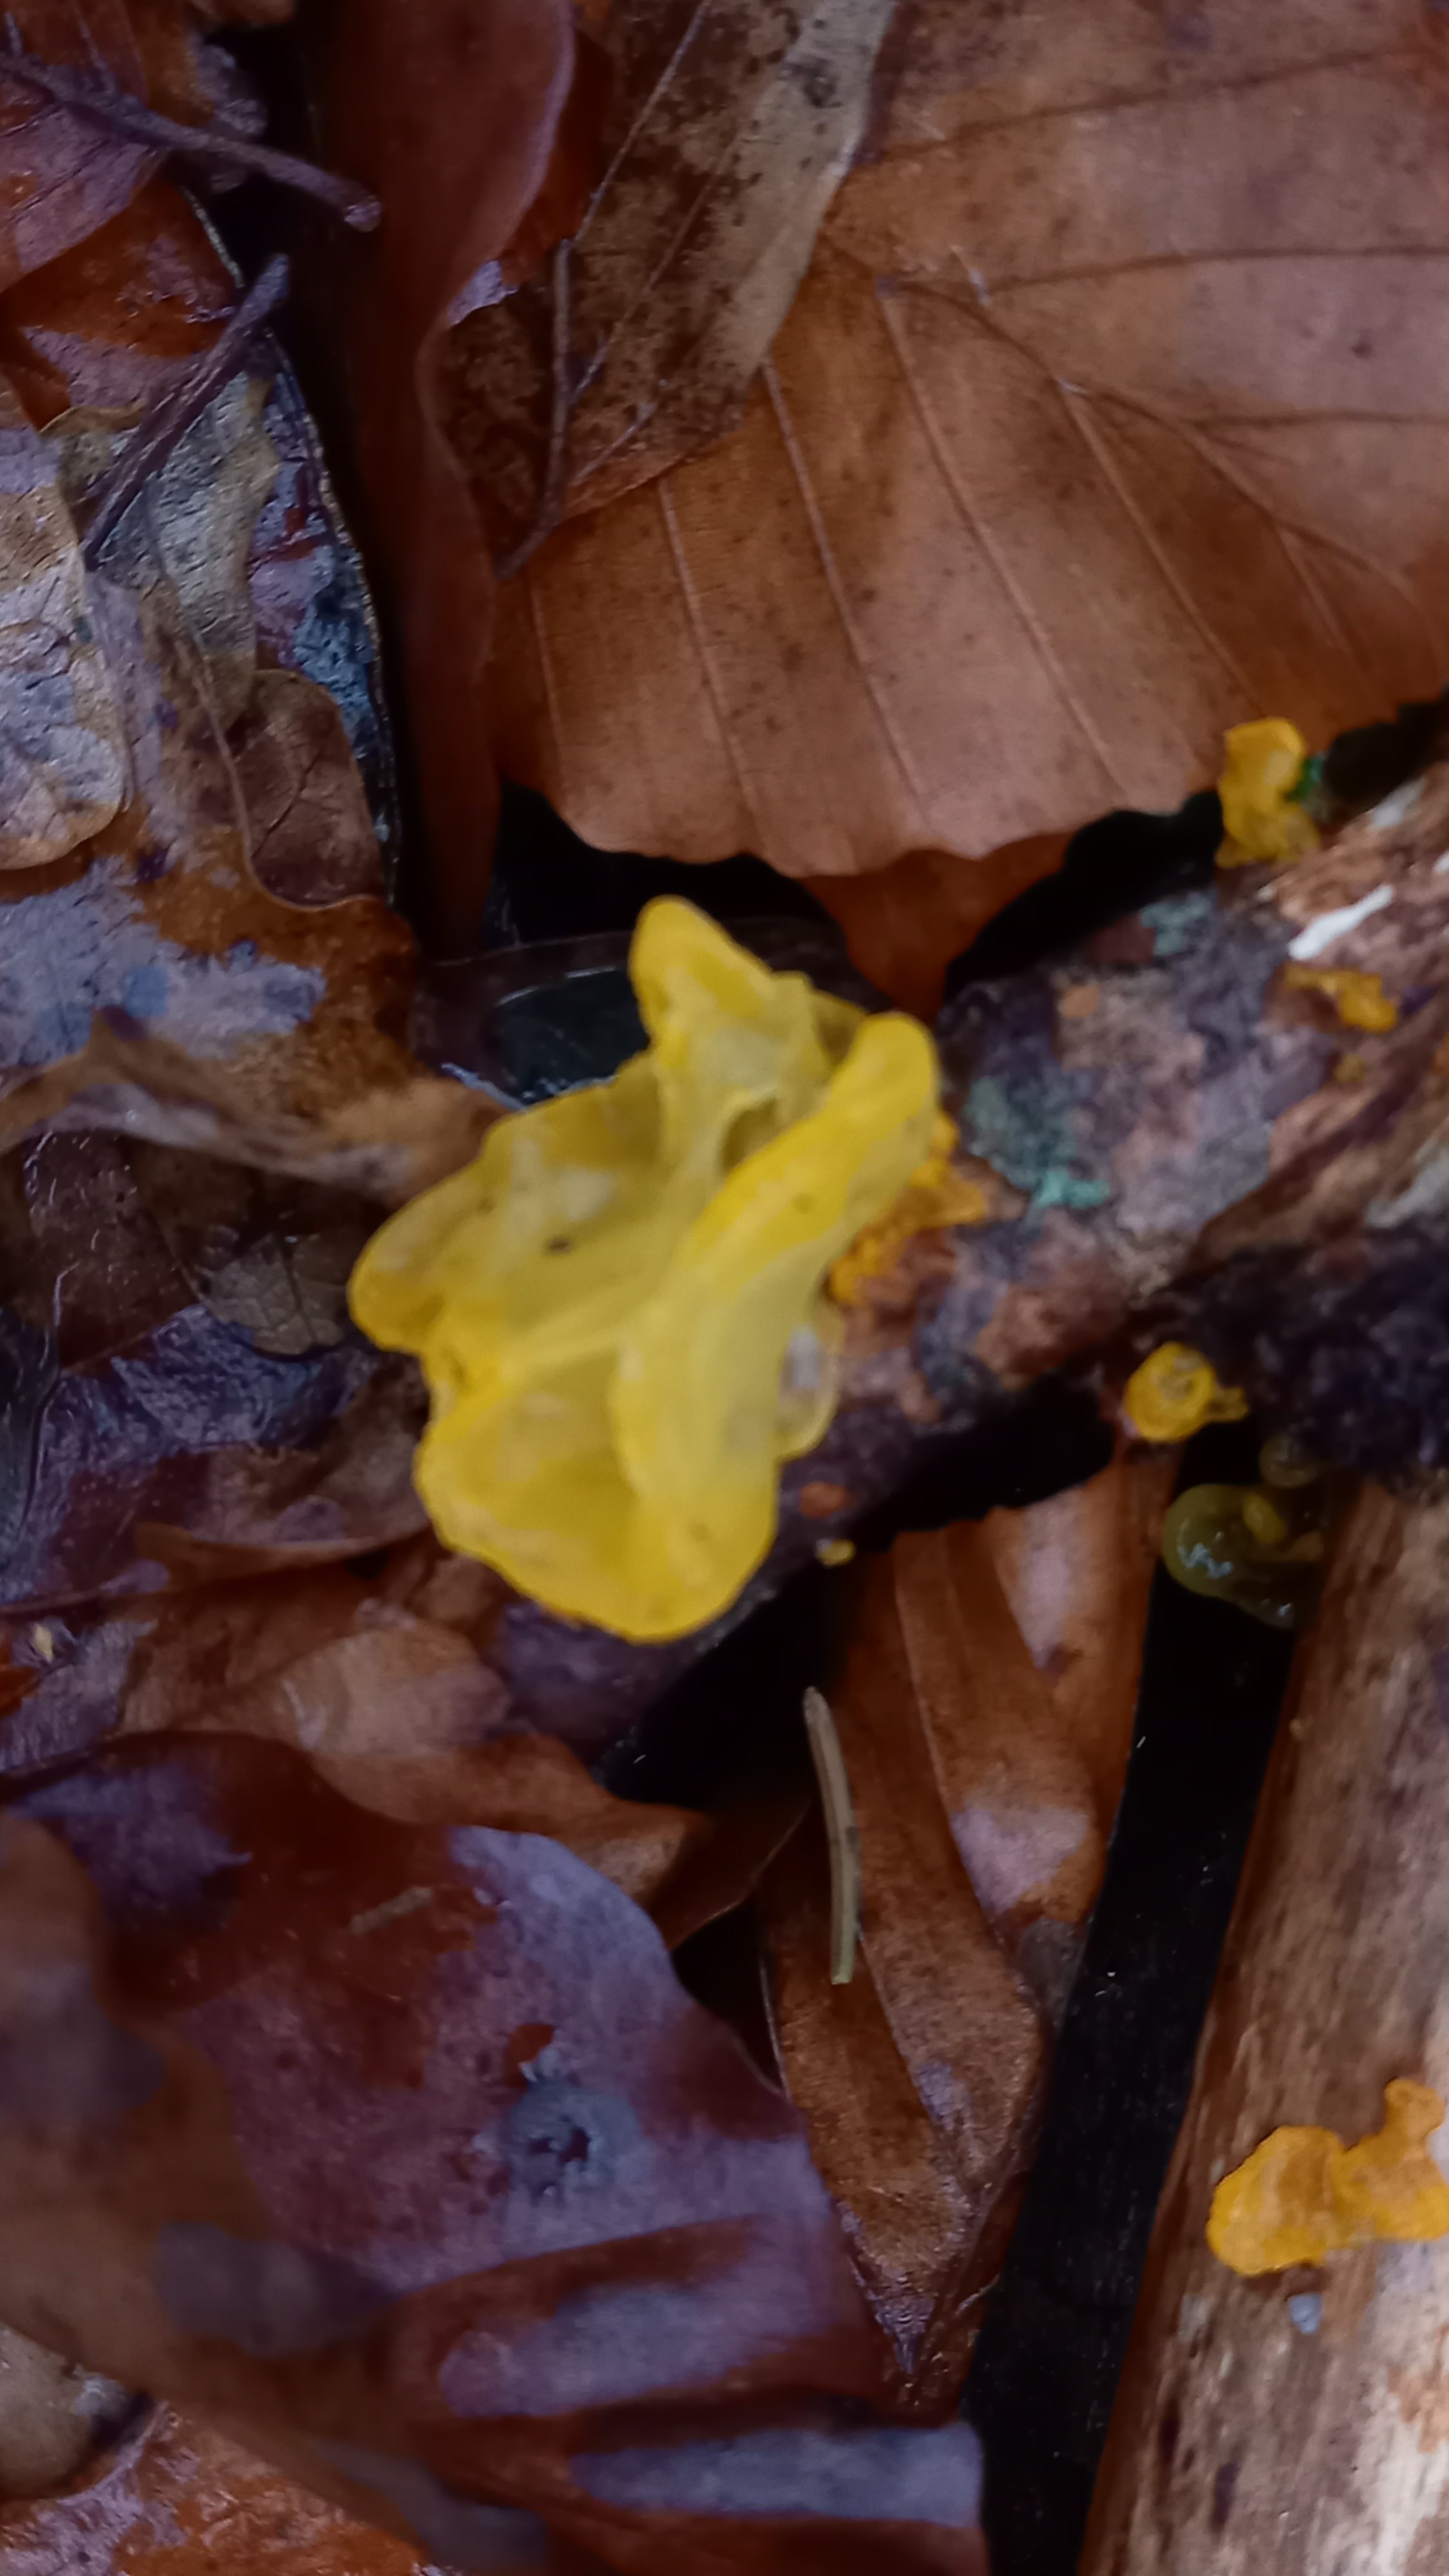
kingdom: Fungi
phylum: Basidiomycota
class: Tremellomycetes
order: Tremellales
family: Tremellaceae
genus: Tremella
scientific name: Tremella mesenterica
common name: gul bævresvamp
